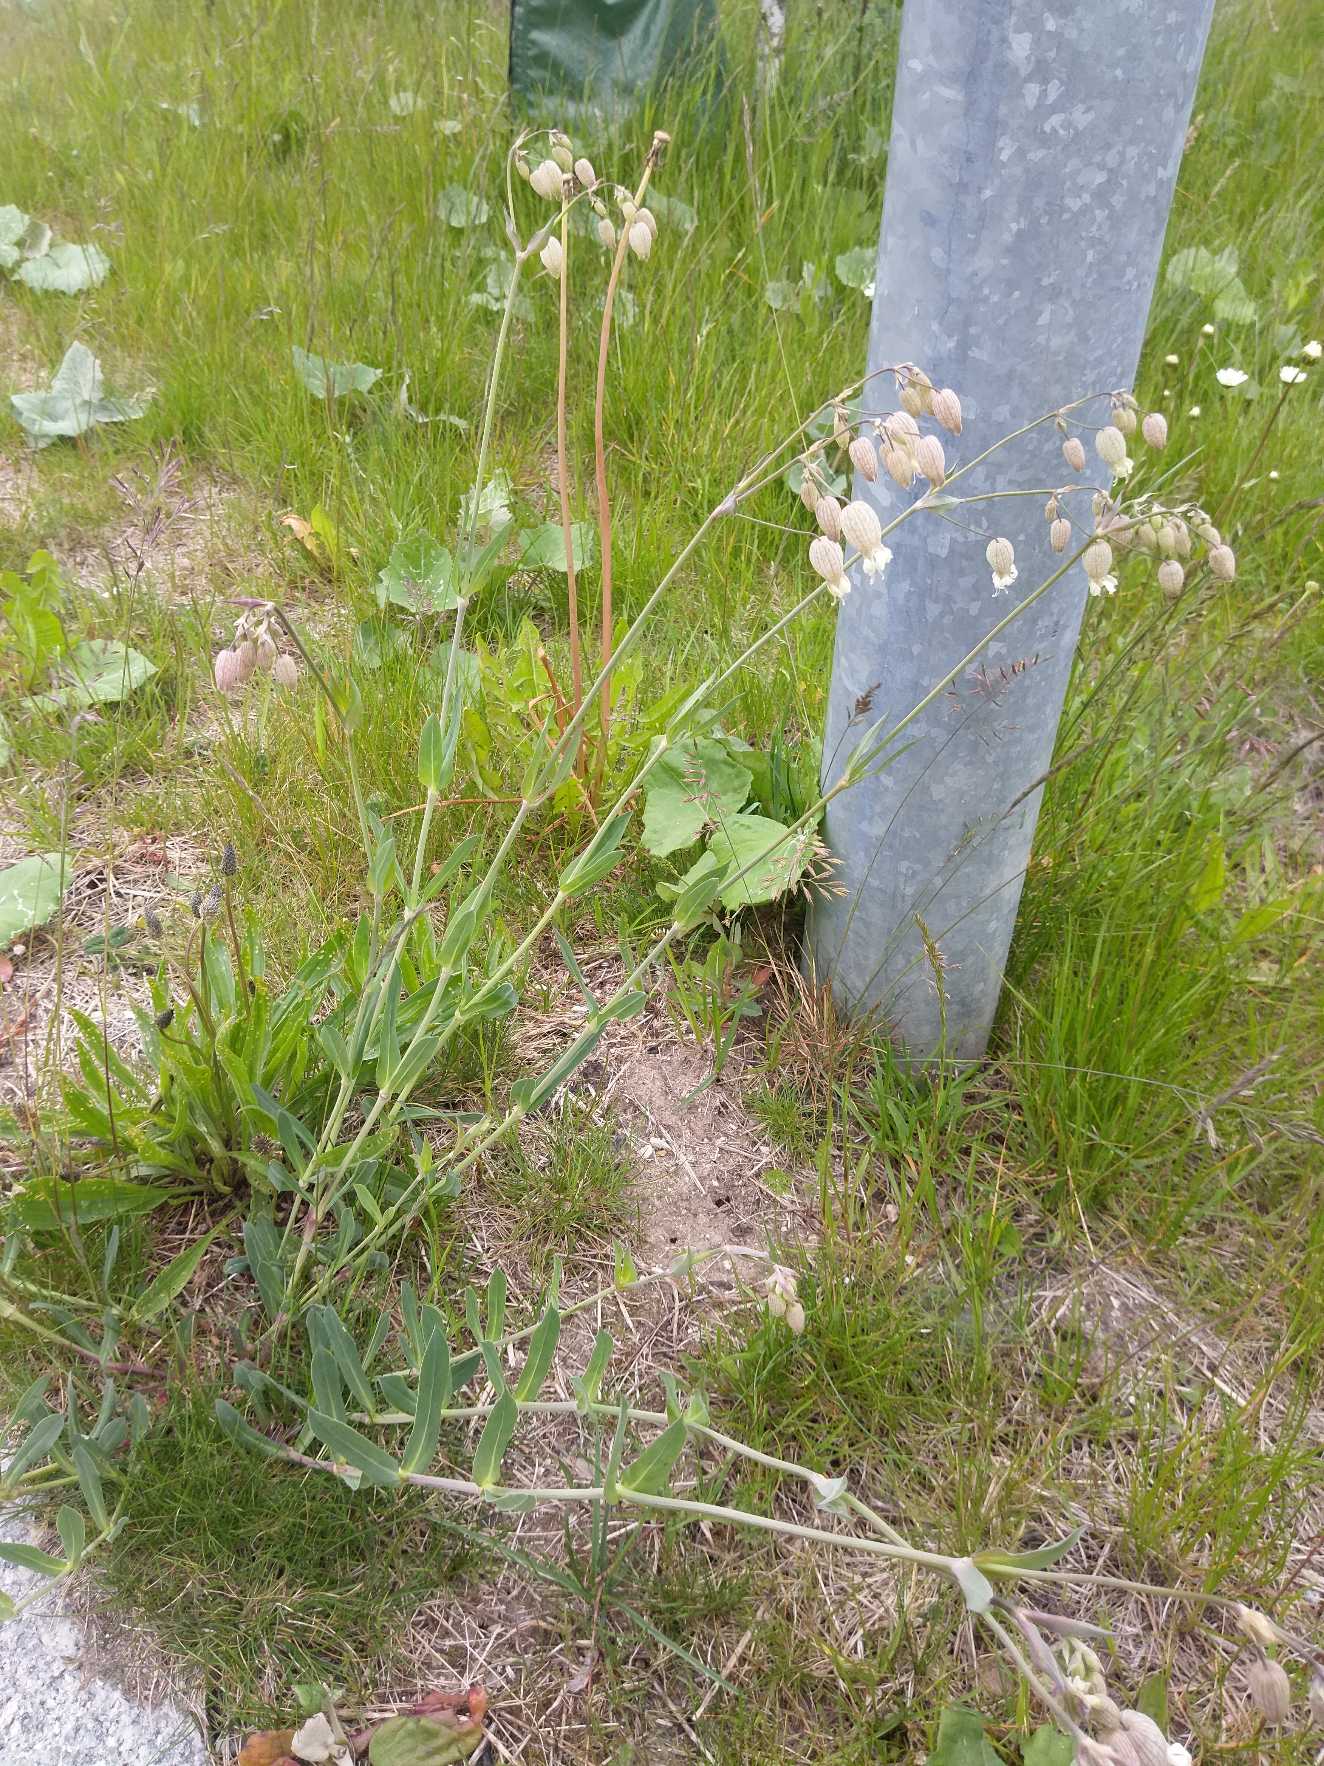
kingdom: Plantae
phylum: Tracheophyta
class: Magnoliopsida
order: Caryophyllales
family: Caryophyllaceae
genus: Silene
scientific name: Silene vulgaris
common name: Blæresmælde
